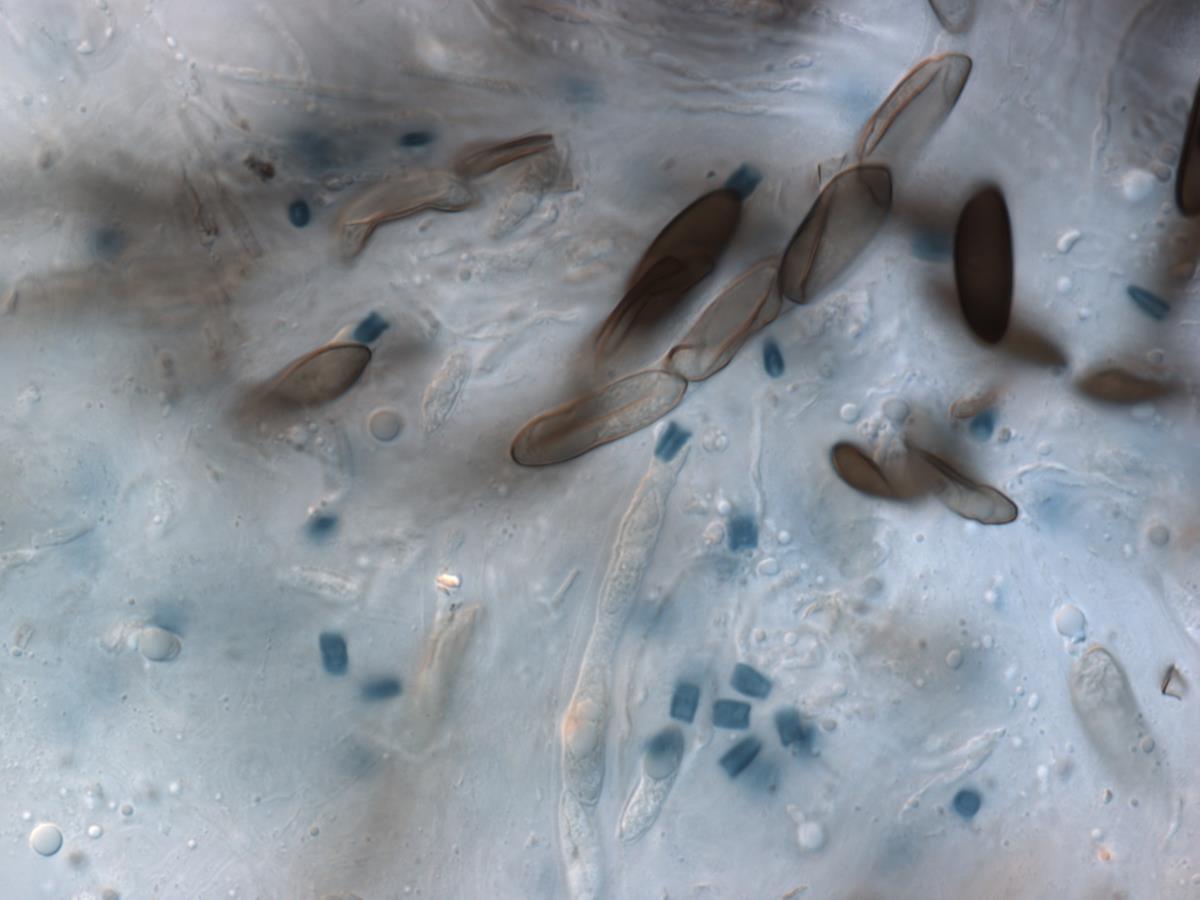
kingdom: Fungi
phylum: Ascomycota
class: Sordariomycetes
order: Xylariales
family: Xylariaceae
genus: Xylaria
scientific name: Xylaria
